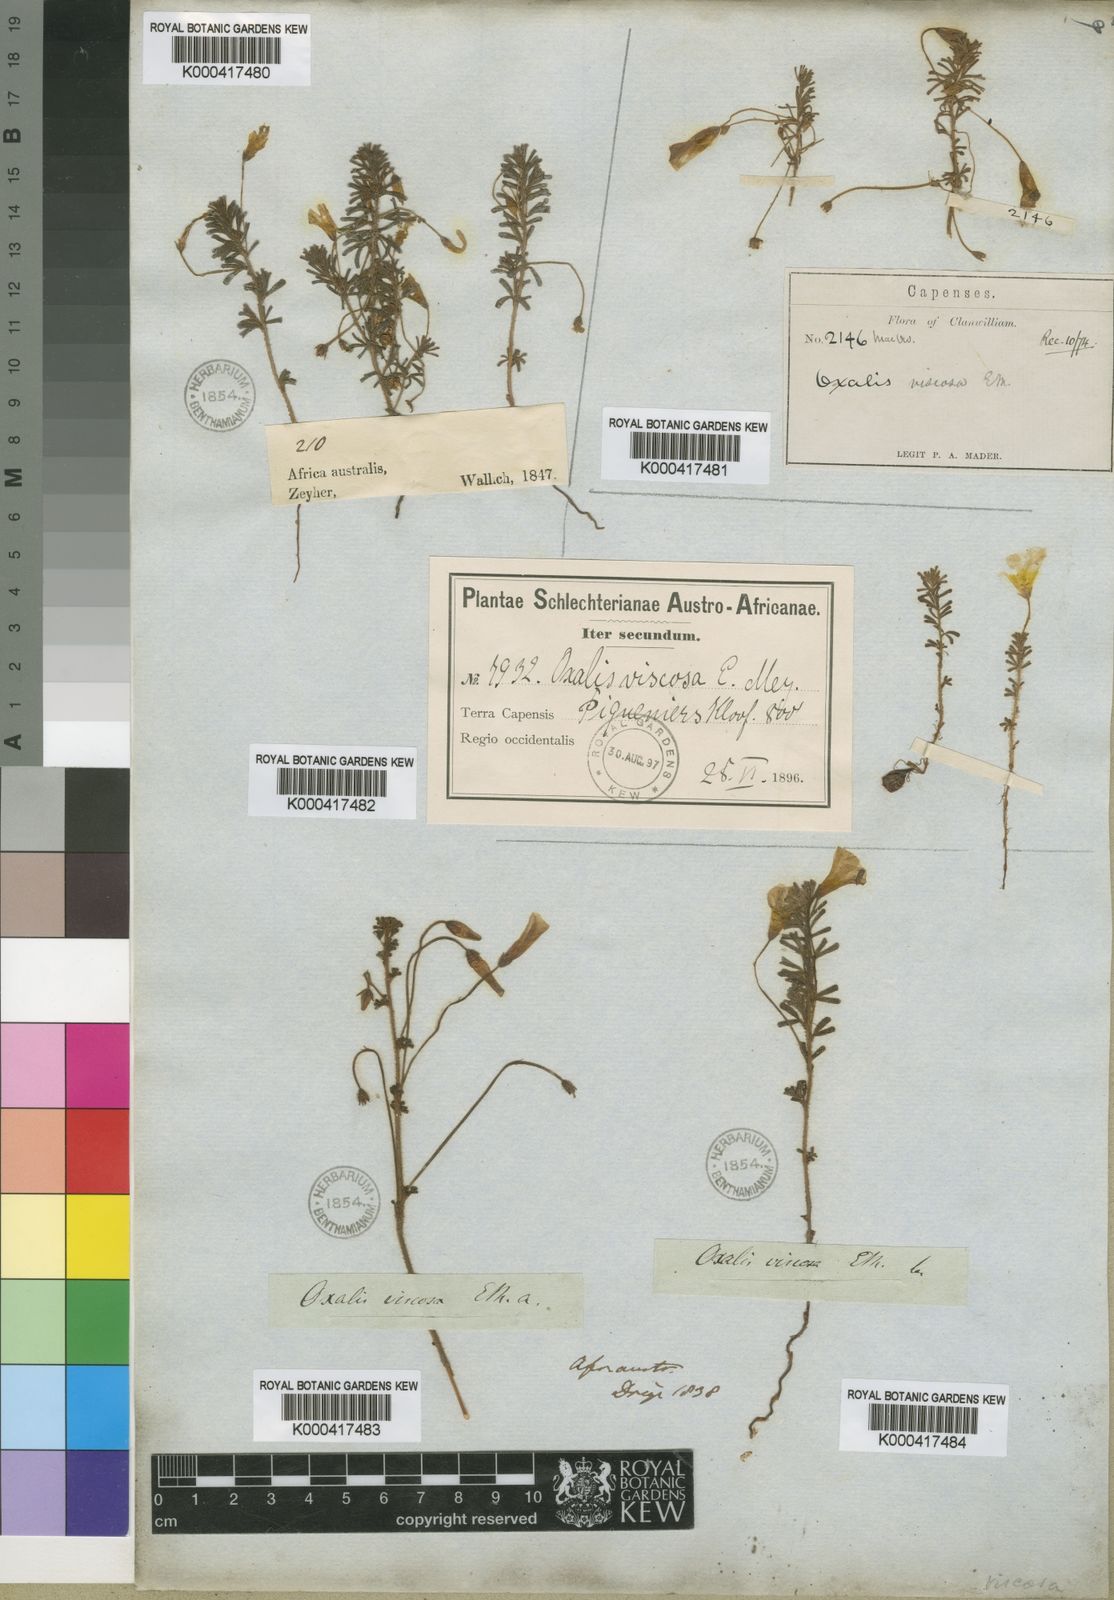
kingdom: Plantae
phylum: Tracheophyta
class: Magnoliopsida
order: Oxalidales
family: Oxalidaceae
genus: Oxalis
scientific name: Oxalis viscosa
